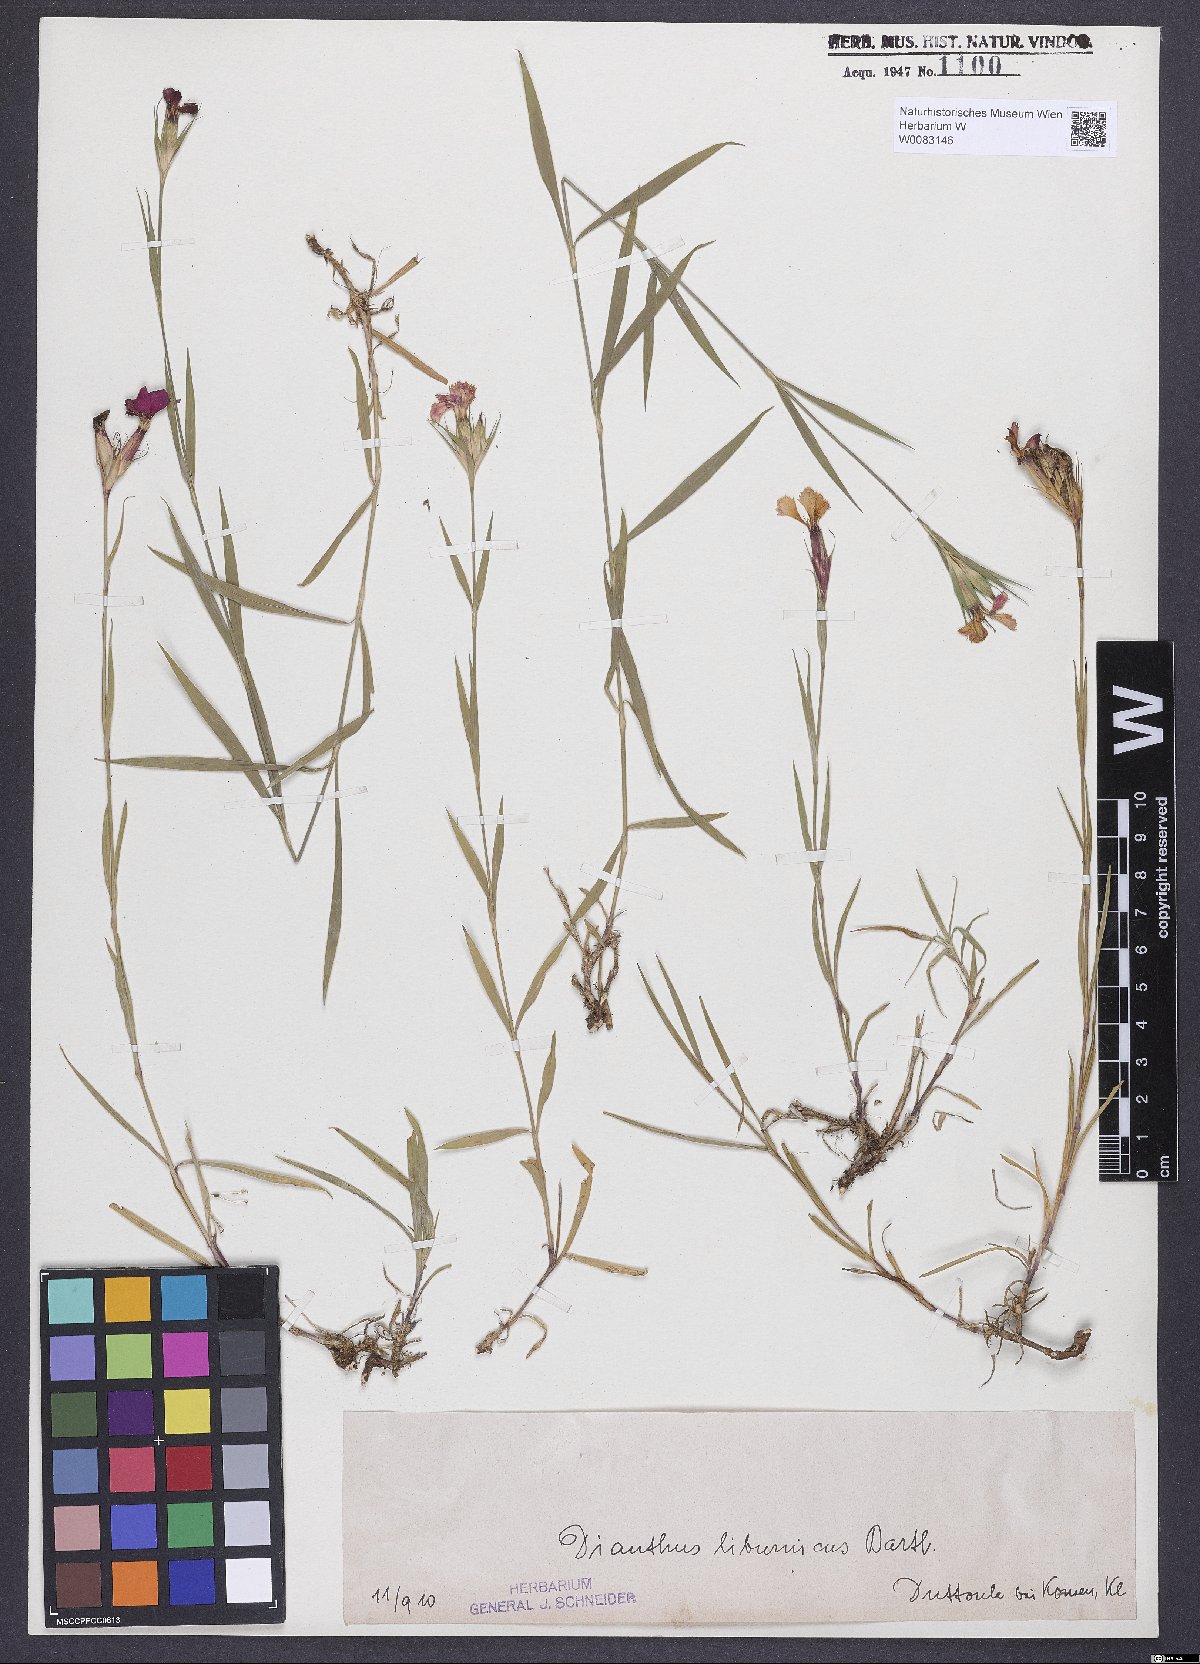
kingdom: Plantae
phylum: Tracheophyta
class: Magnoliopsida
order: Caryophyllales
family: Caryophyllaceae
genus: Dianthus
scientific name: Dianthus balbisii
